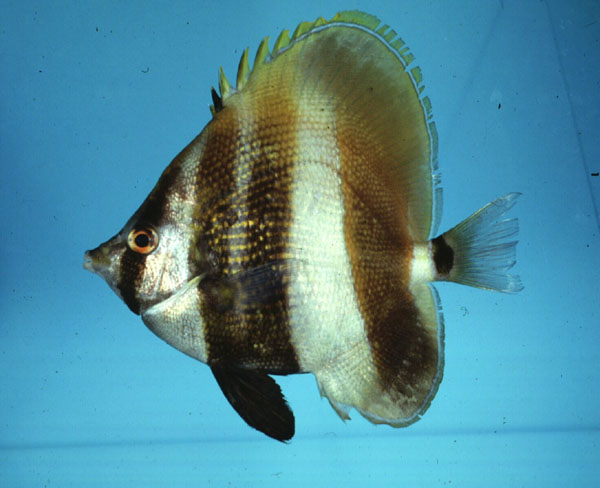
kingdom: Animalia
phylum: Chordata
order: Perciformes
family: Chaetodontidae
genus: Coradion
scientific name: Coradion altivelis
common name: High-fin butterflyfish
